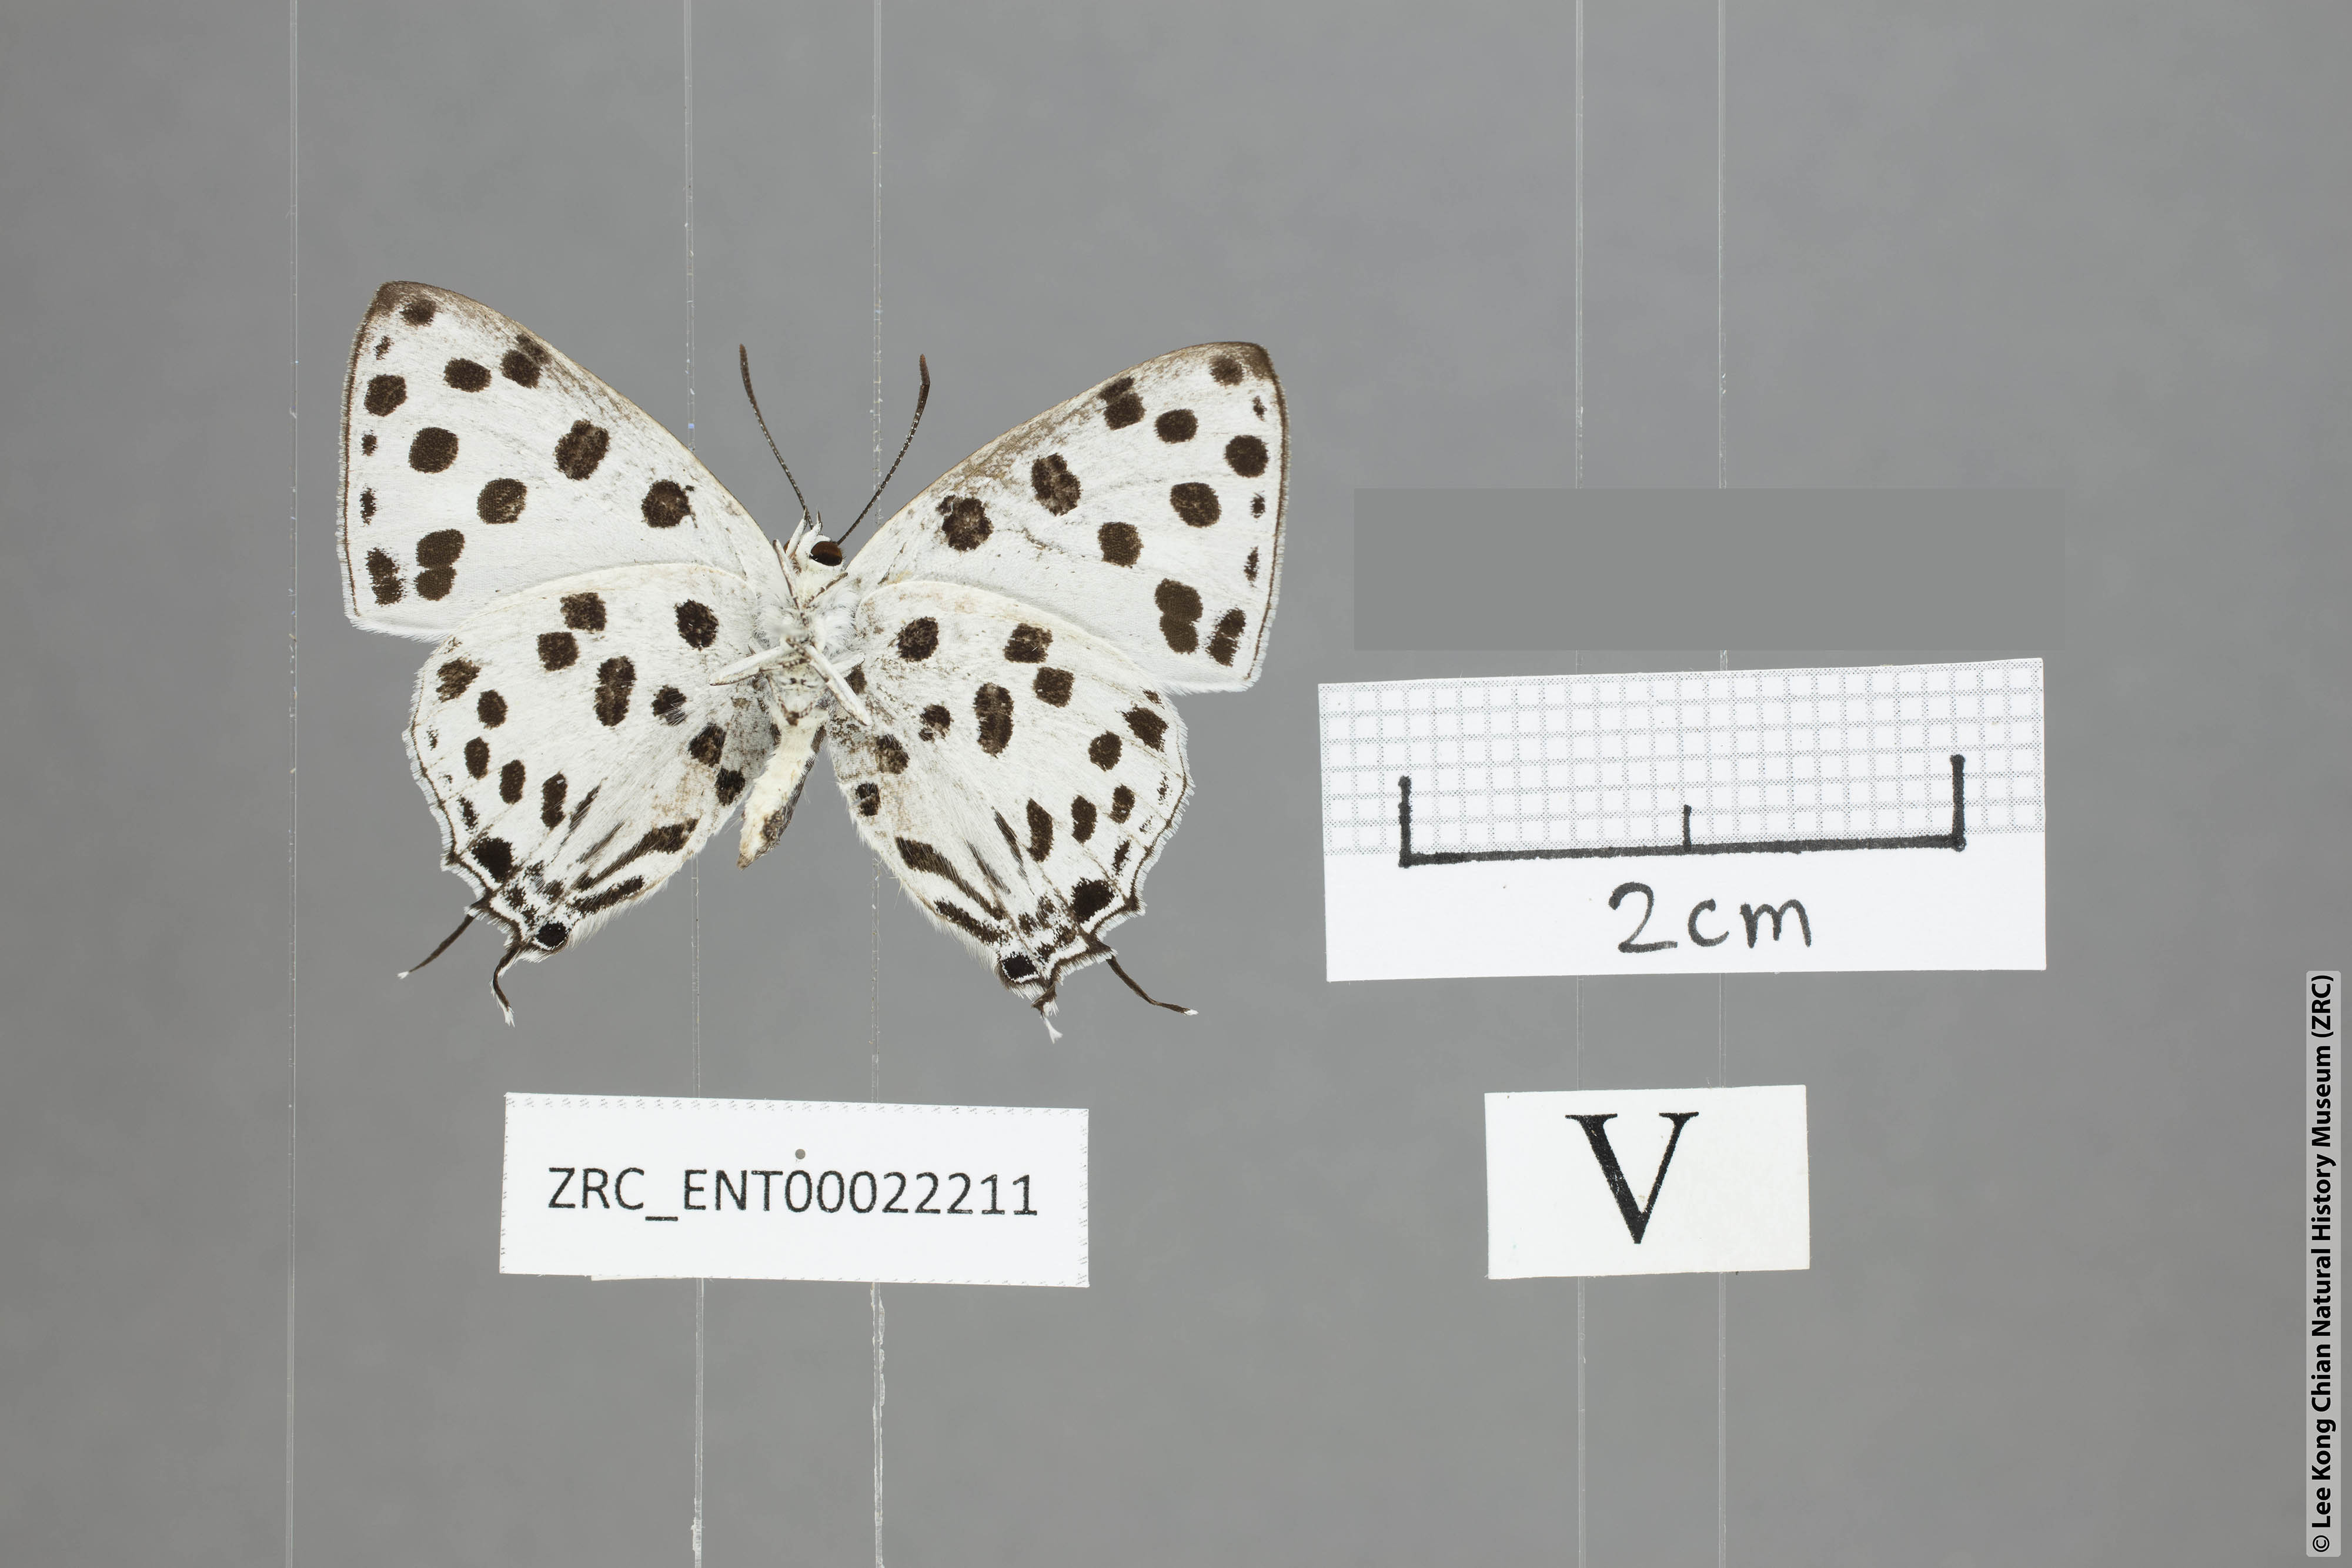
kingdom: Animalia
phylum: Arthropoda
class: Insecta
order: Lepidoptera
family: Lycaenidae
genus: Tajuria
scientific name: Tajuria maculatus
